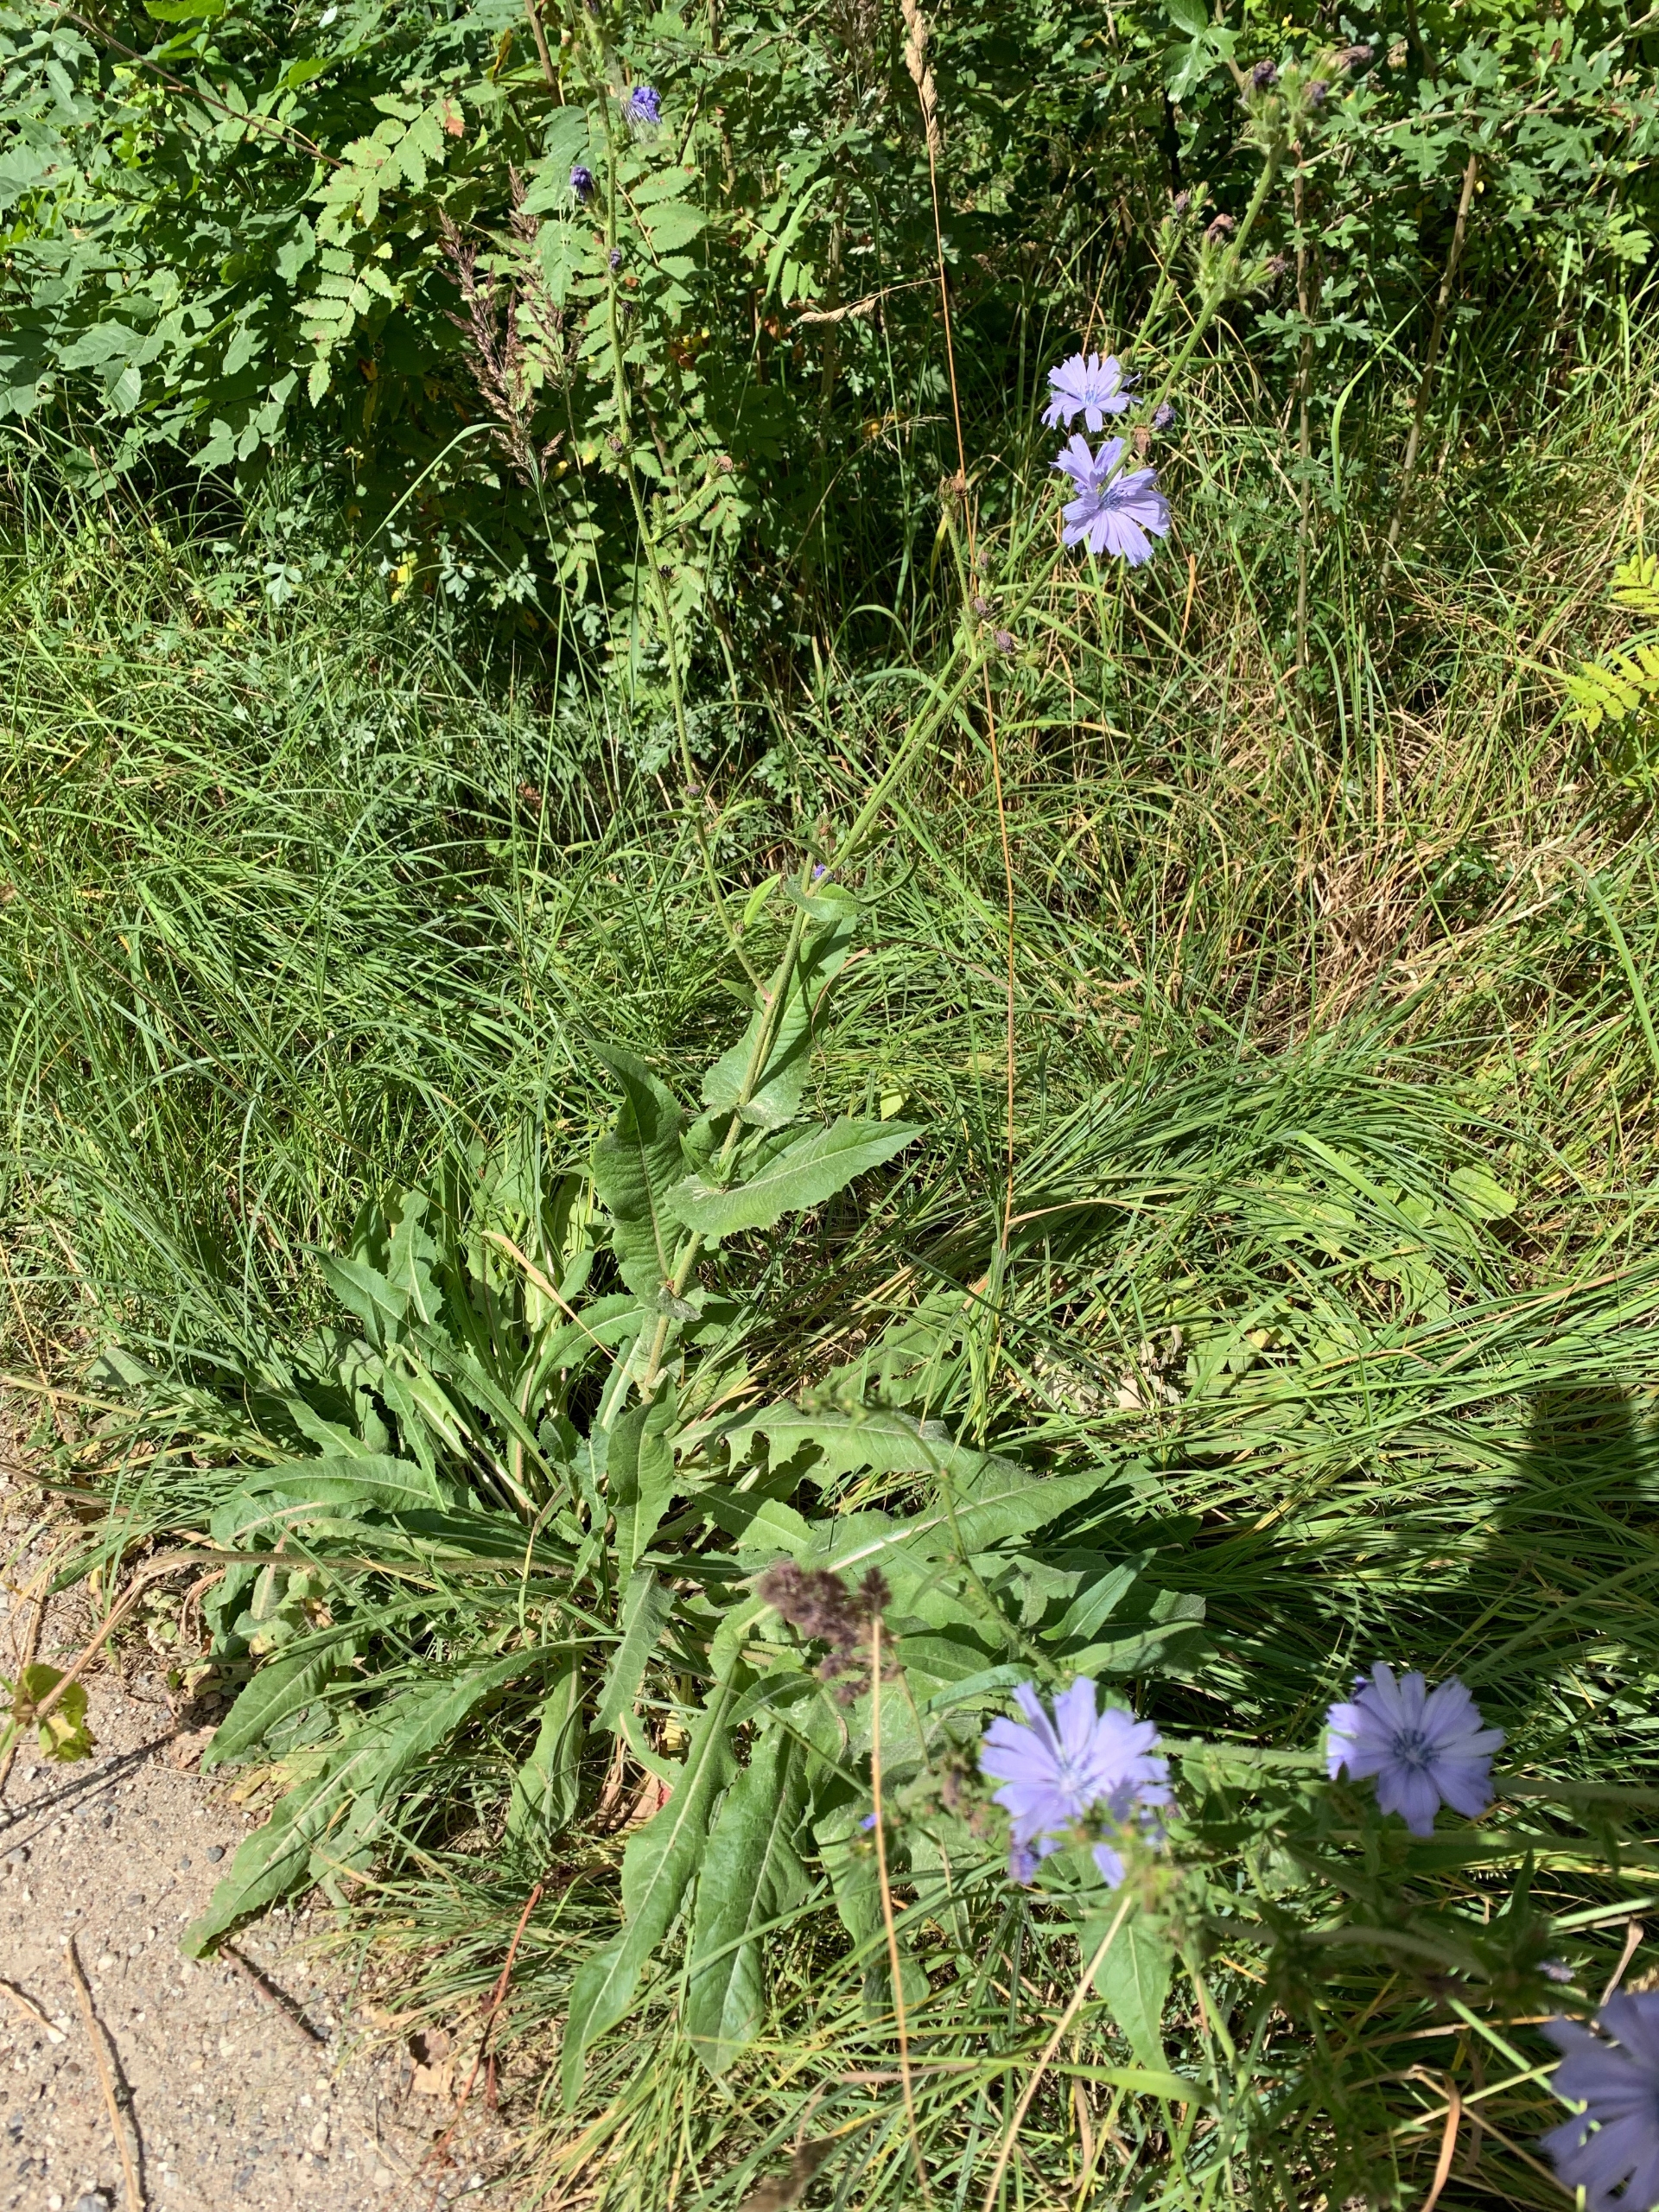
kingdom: Plantae
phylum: Tracheophyta
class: Magnoliopsida
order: Asterales
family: Asteraceae
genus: Cichorium
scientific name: Cichorium intybus
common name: Cikorie
